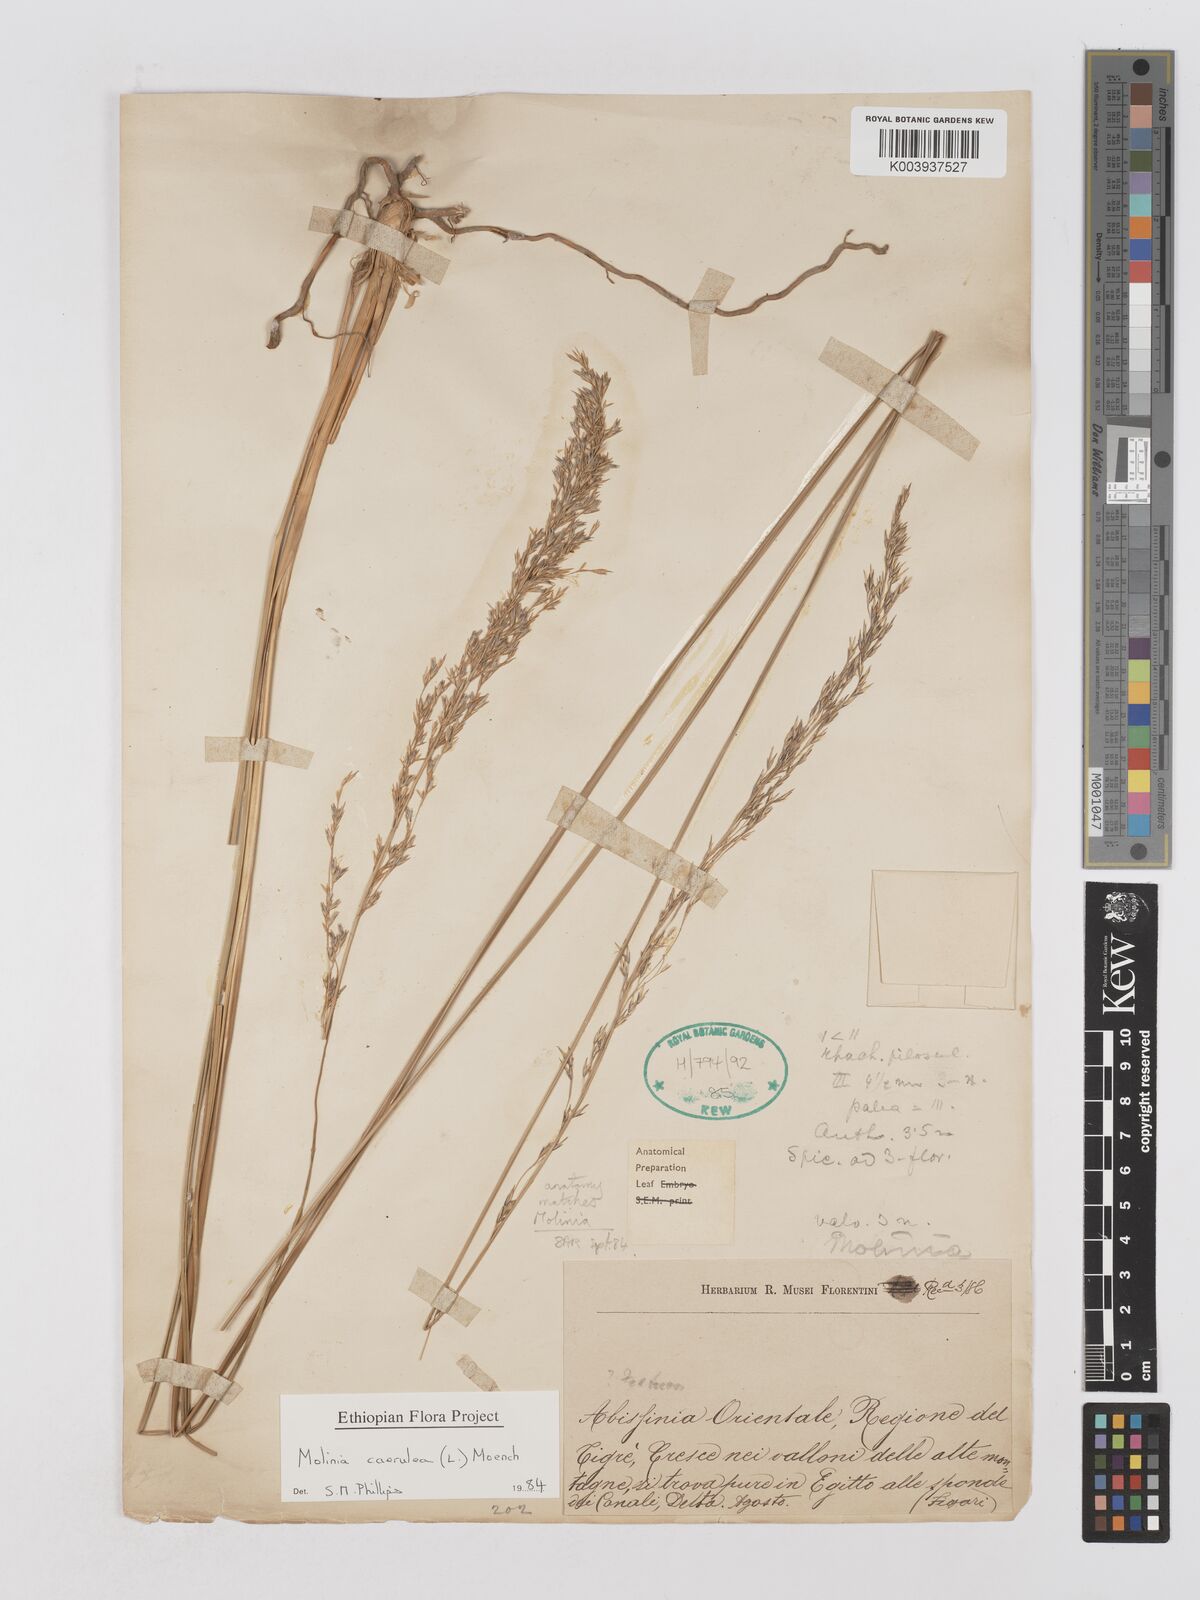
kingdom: Plantae
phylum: Tracheophyta
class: Liliopsida
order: Poales
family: Poaceae
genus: Molinia
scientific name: Molinia caerulea
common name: Purple moor-grass
